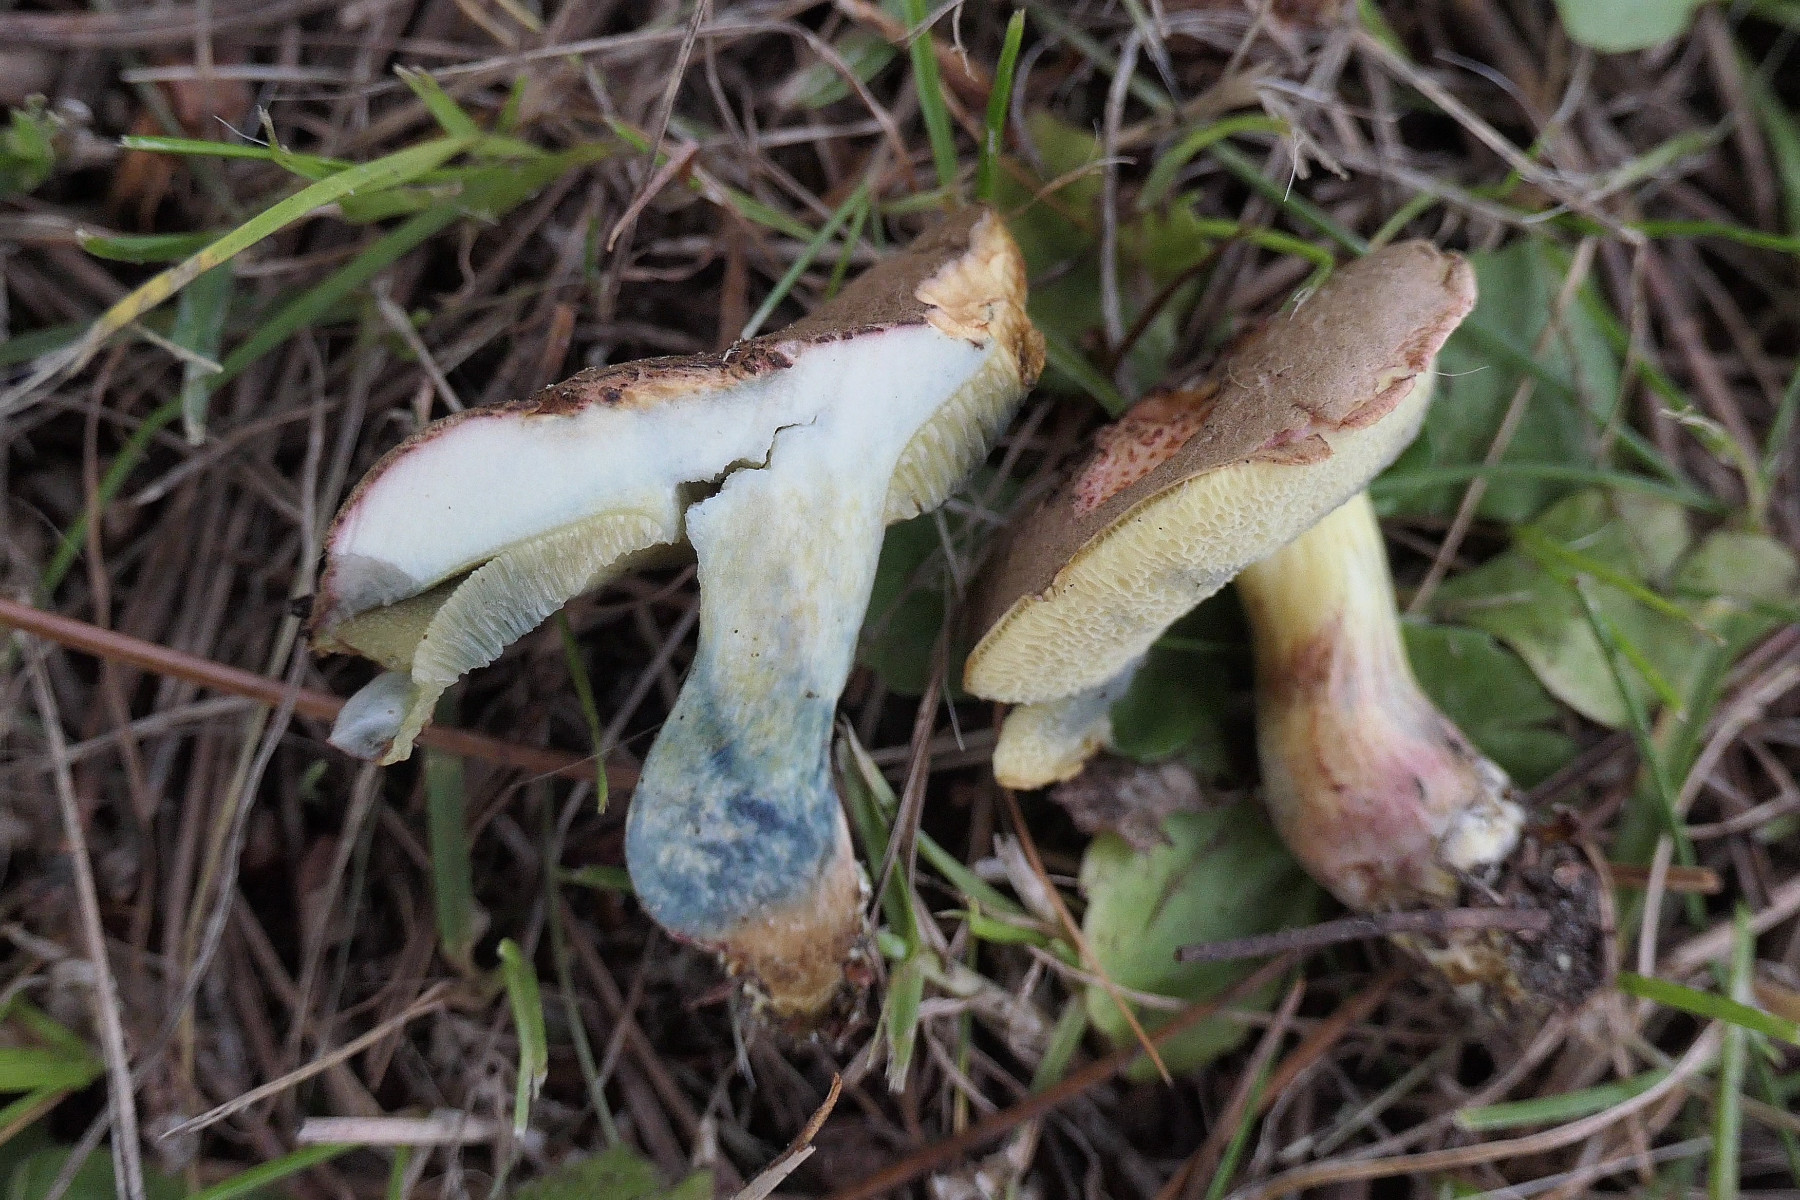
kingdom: Fungi
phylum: Basidiomycota
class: Agaricomycetes
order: Boletales
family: Boletaceae
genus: Xerocomellus
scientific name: Xerocomellus cisalpinus
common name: finsprukken rørhat
